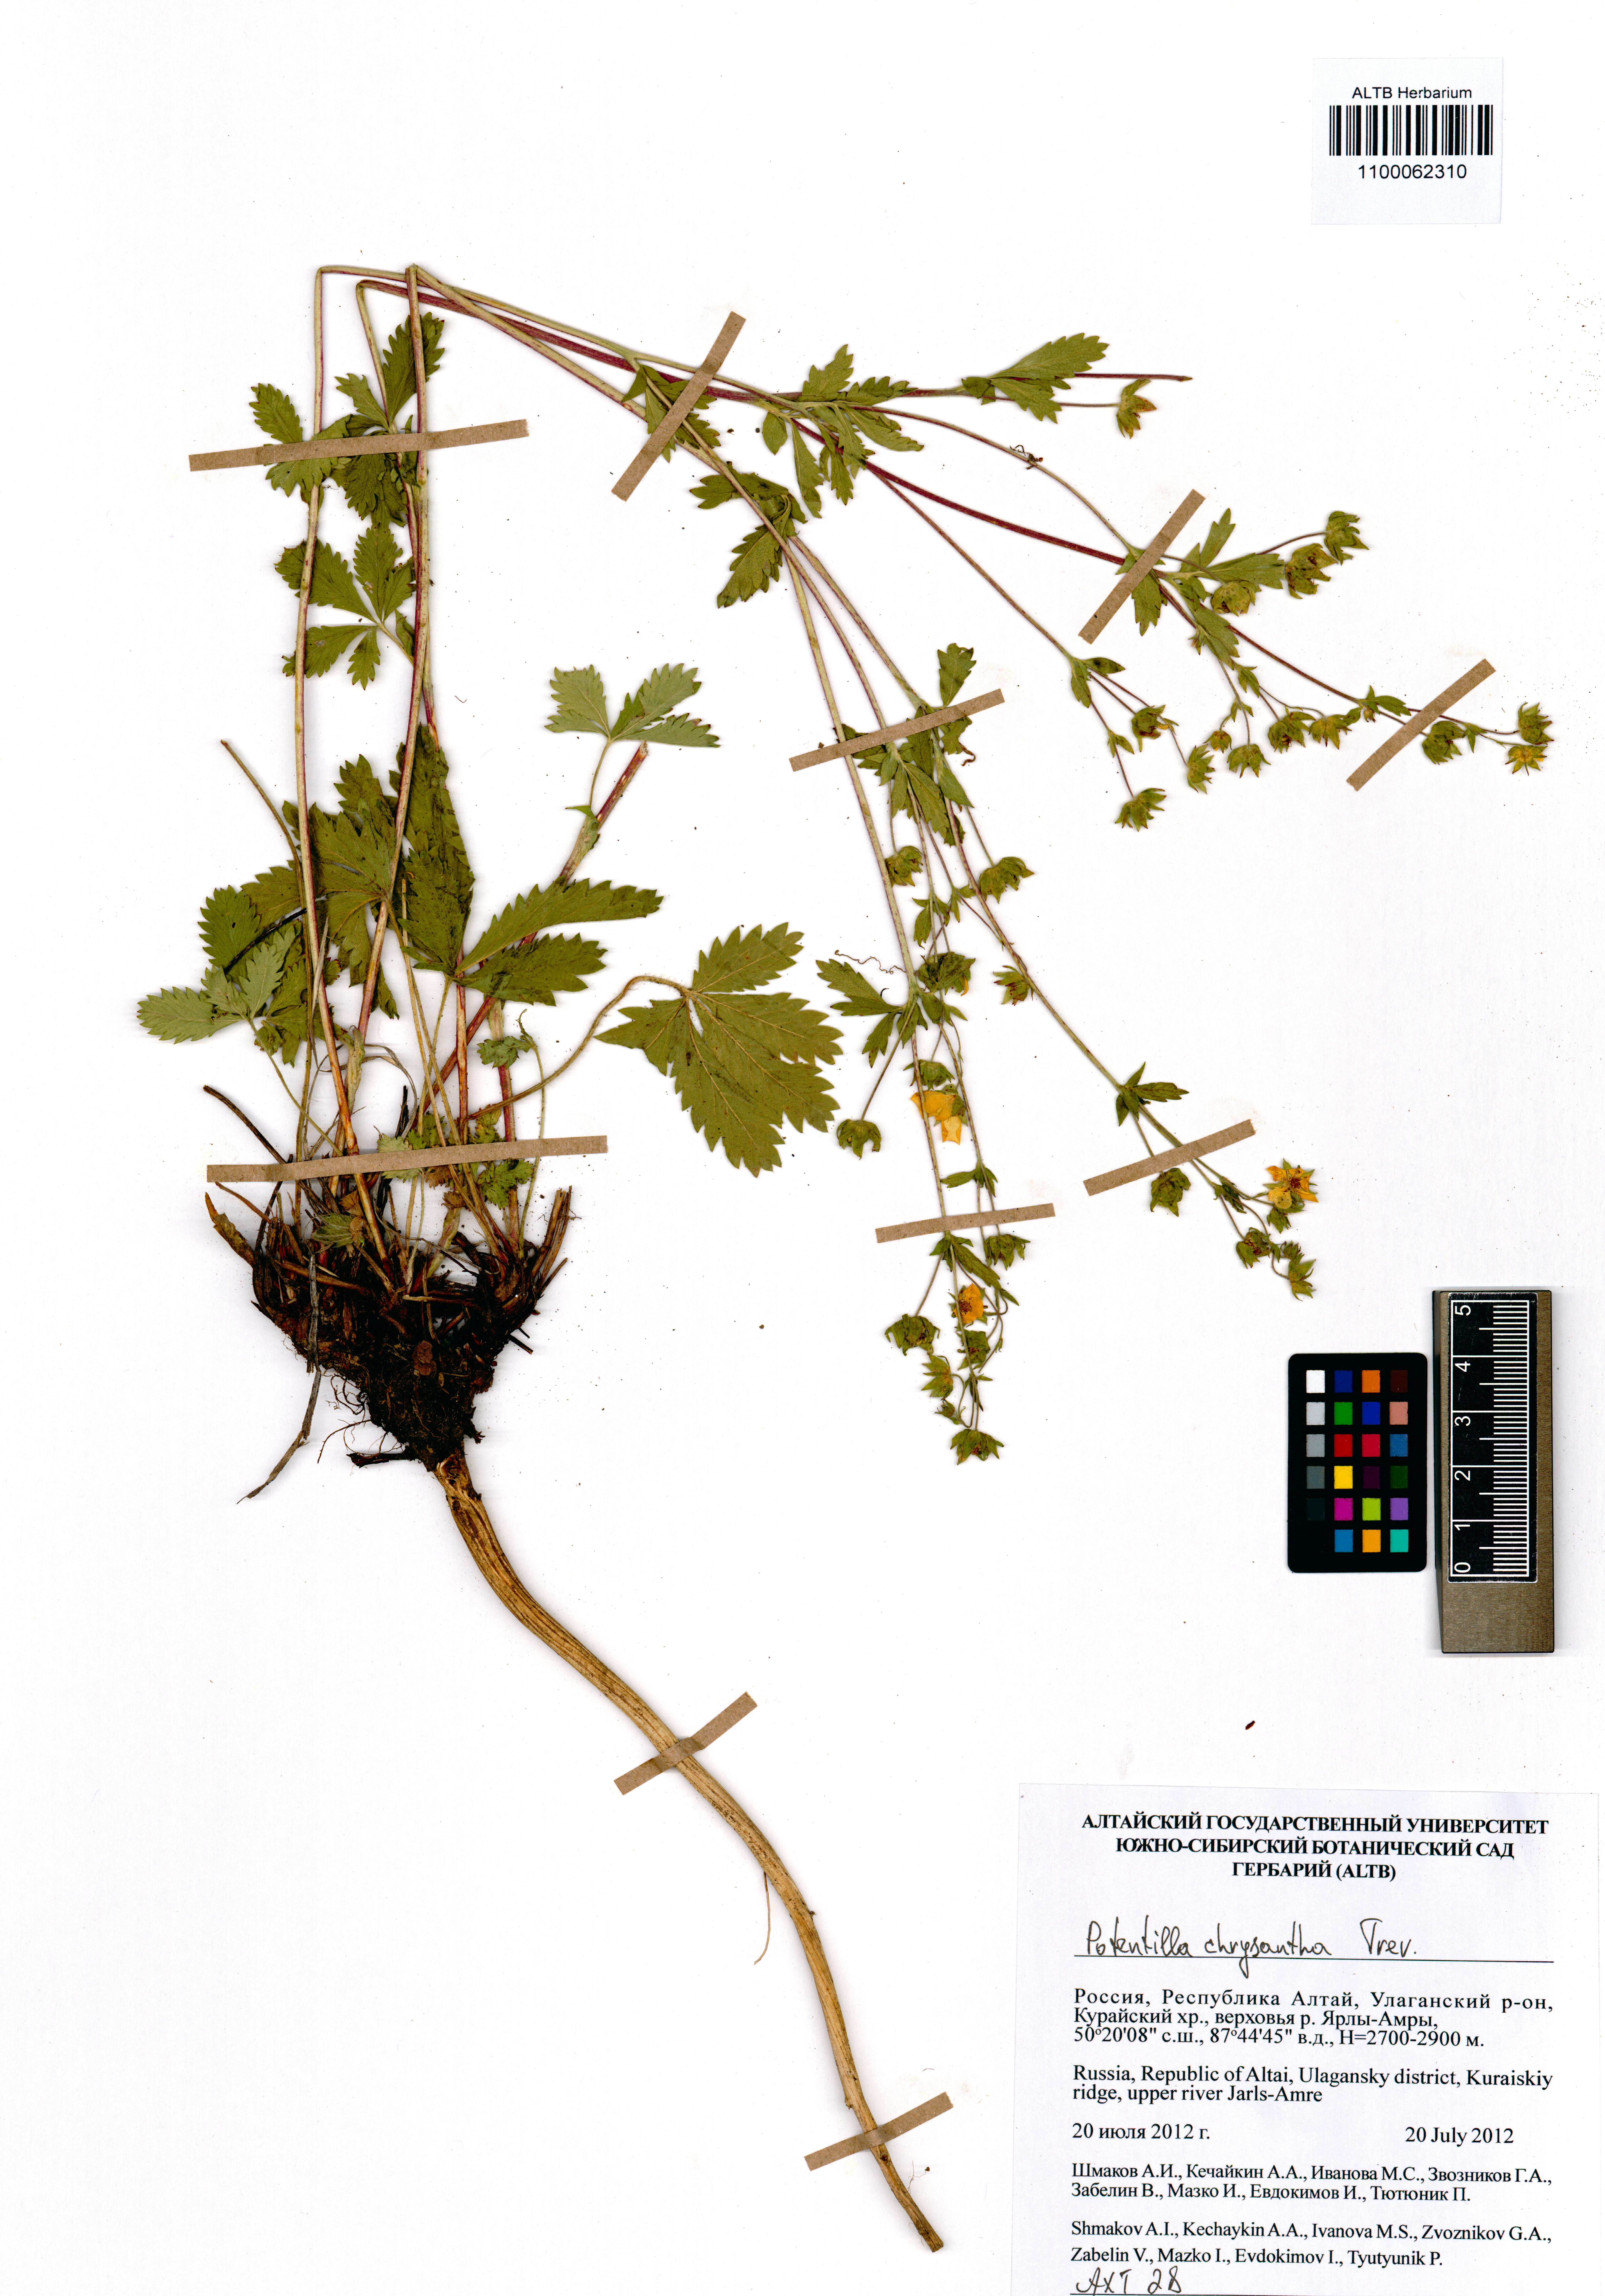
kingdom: Plantae
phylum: Tracheophyta
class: Magnoliopsida
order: Rosales
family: Rosaceae
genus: Potentilla
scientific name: Potentilla chrysantha
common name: Thuringian cinquefoil
